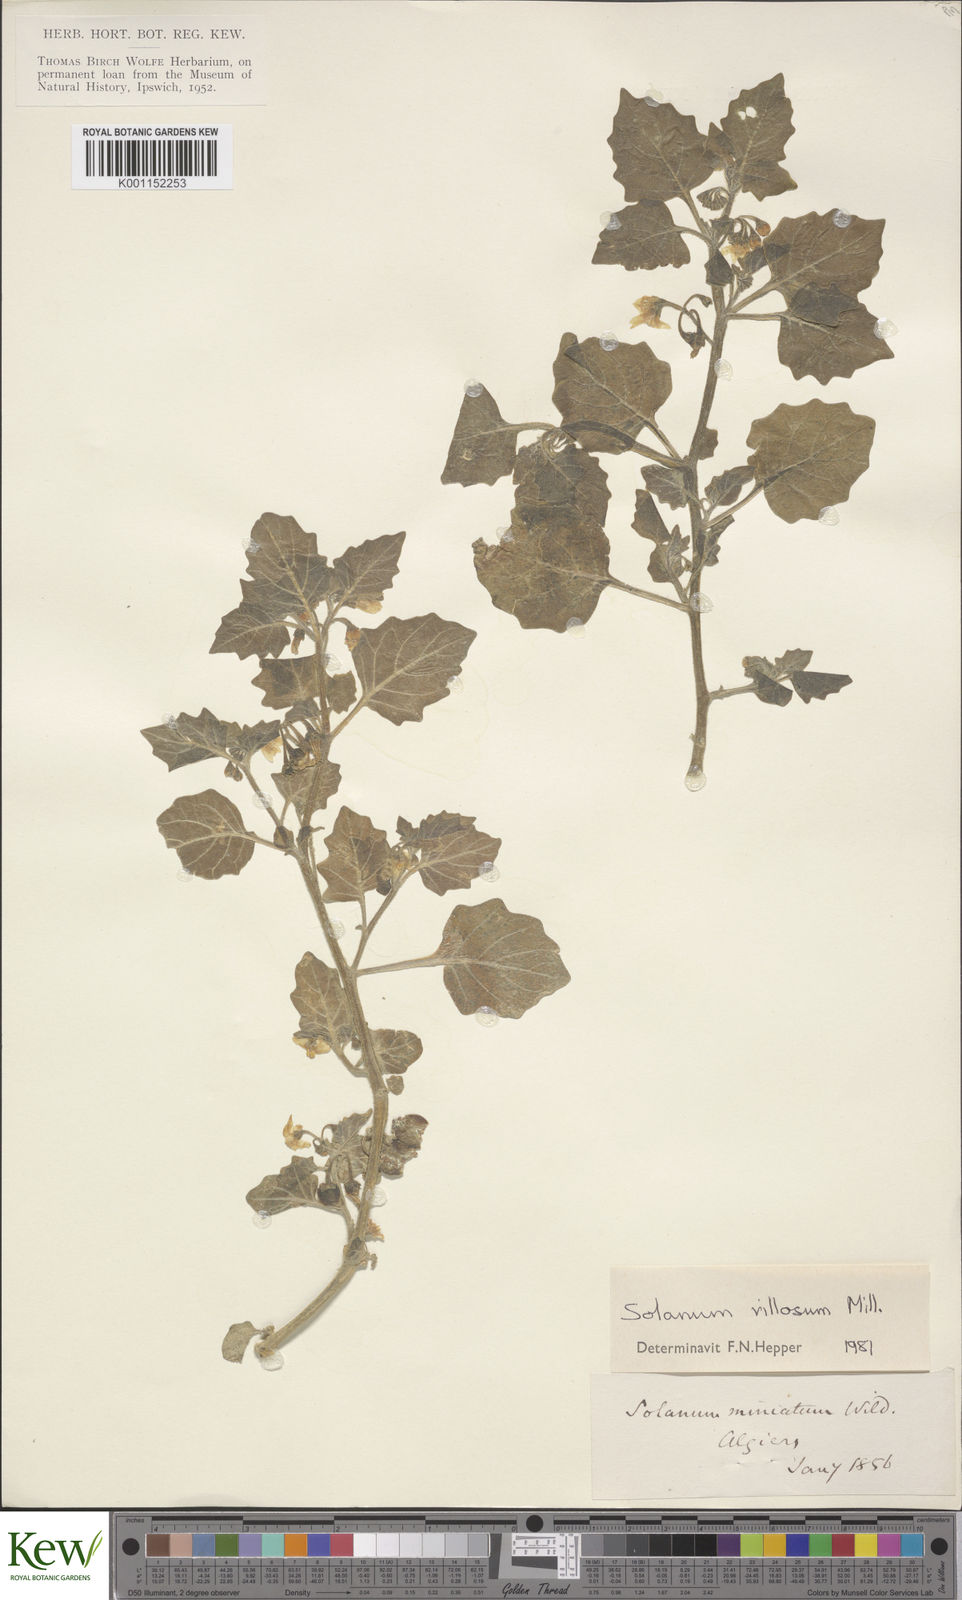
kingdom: Plantae
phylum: Tracheophyta
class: Magnoliopsida
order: Solanales
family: Solanaceae
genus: Solanum
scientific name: Solanum villosum
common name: Red nightshade
